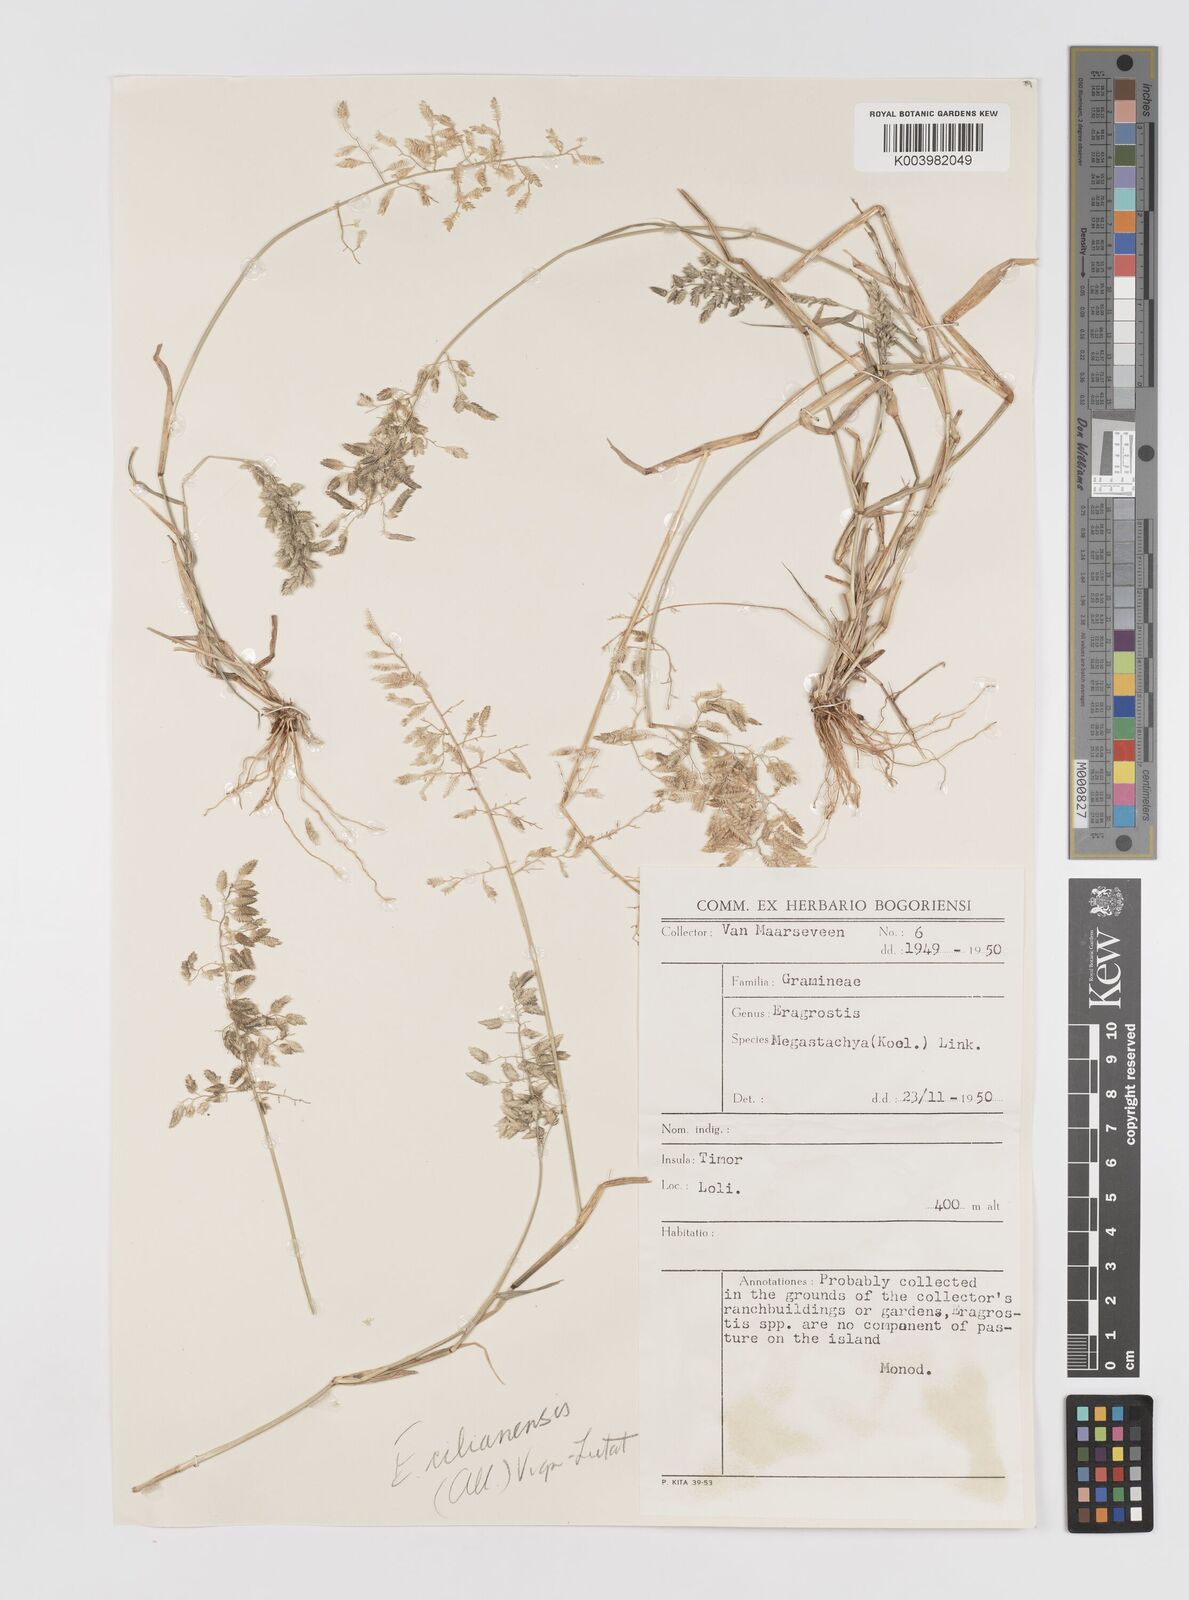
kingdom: Plantae
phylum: Tracheophyta
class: Liliopsida
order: Poales
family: Poaceae
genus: Eragrostis
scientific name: Eragrostis cilianensis
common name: Stinkgrass
